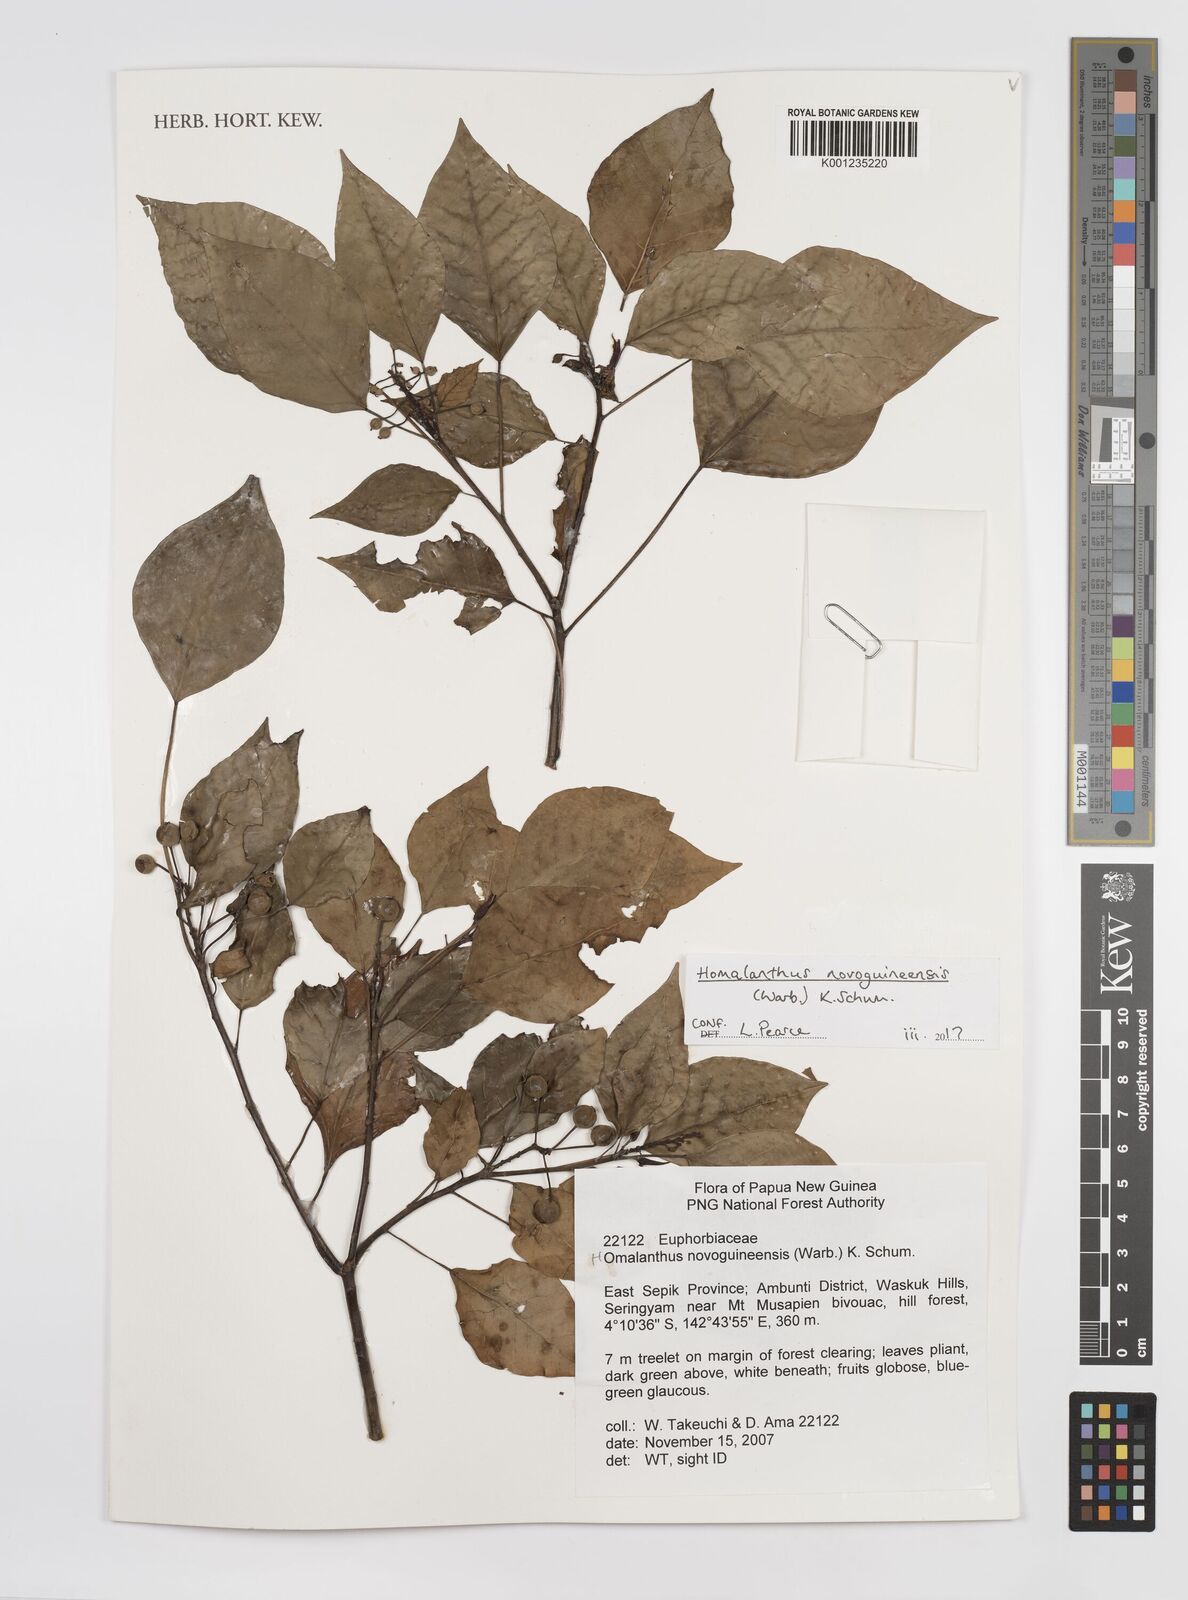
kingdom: Plantae
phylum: Tracheophyta
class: Magnoliopsida
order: Malpighiales
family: Euphorbiaceae
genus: Homalanthus
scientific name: Homalanthus novoguineensis
